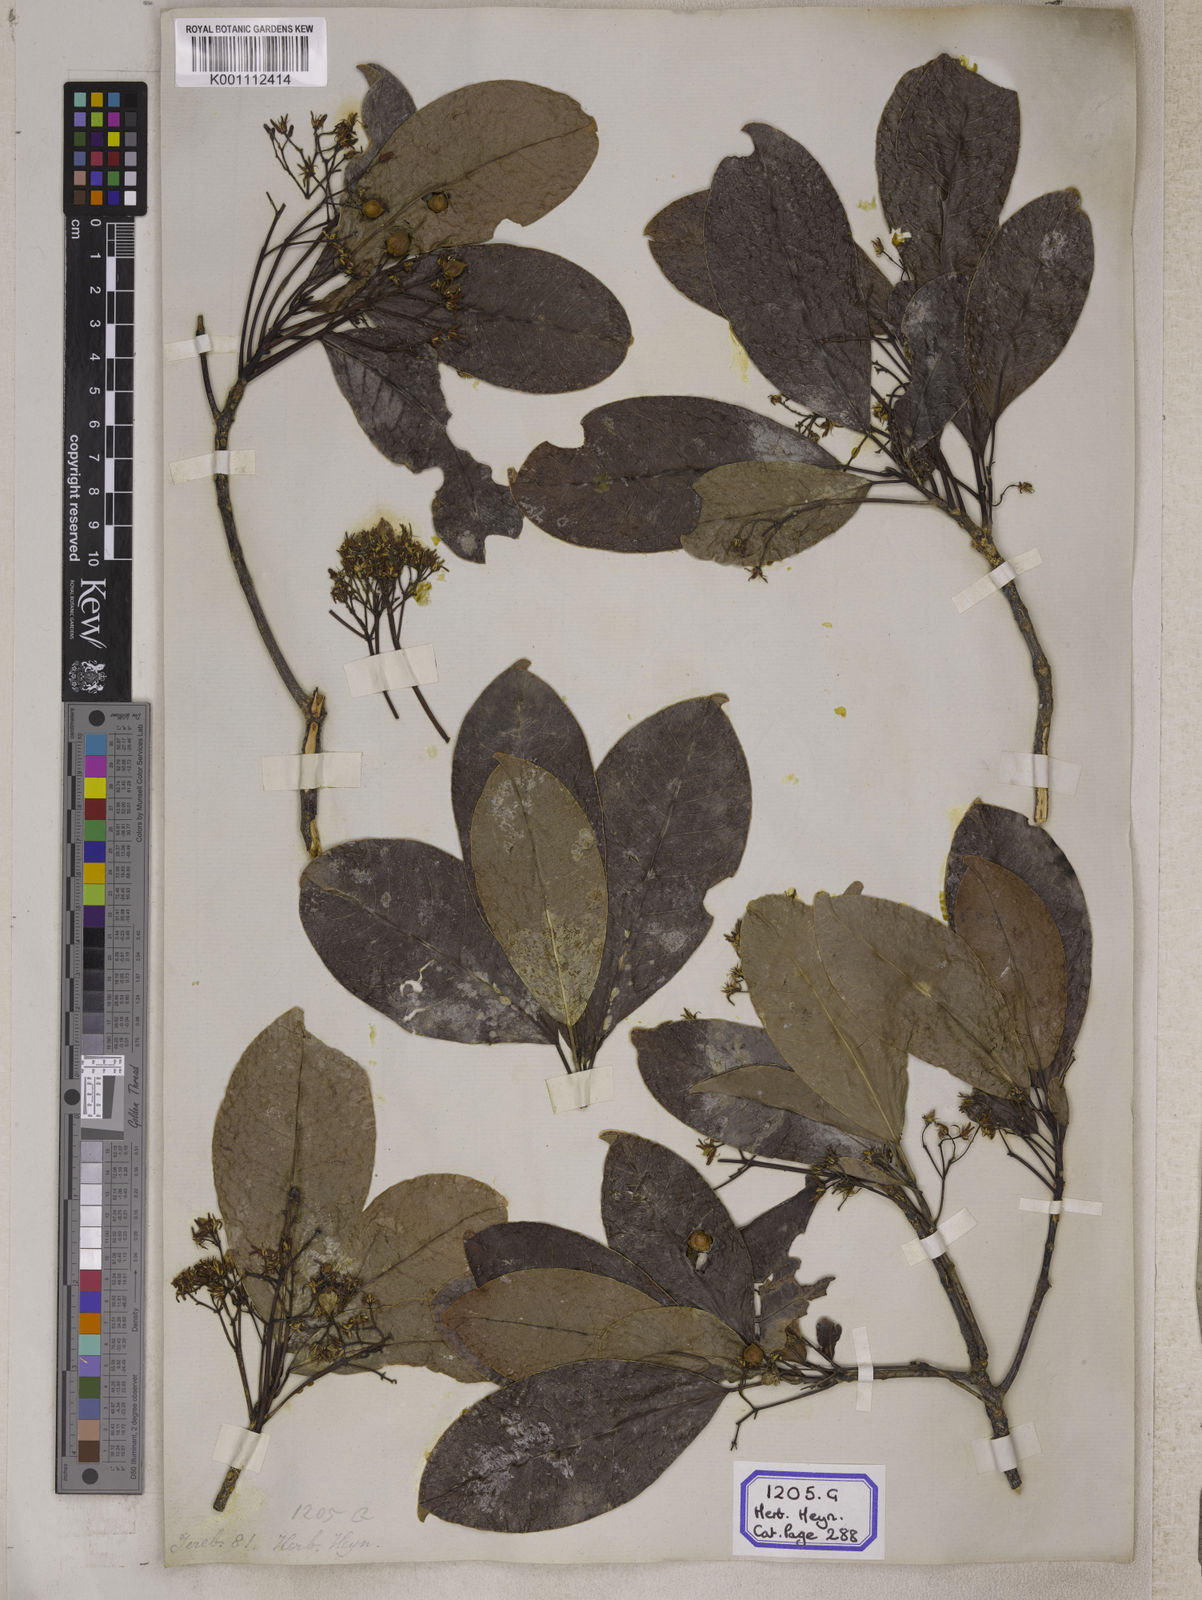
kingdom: Plantae
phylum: Tracheophyta
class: Magnoliopsida
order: Sapindales
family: Rutaceae
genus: Acronychia
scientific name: Acronychia
